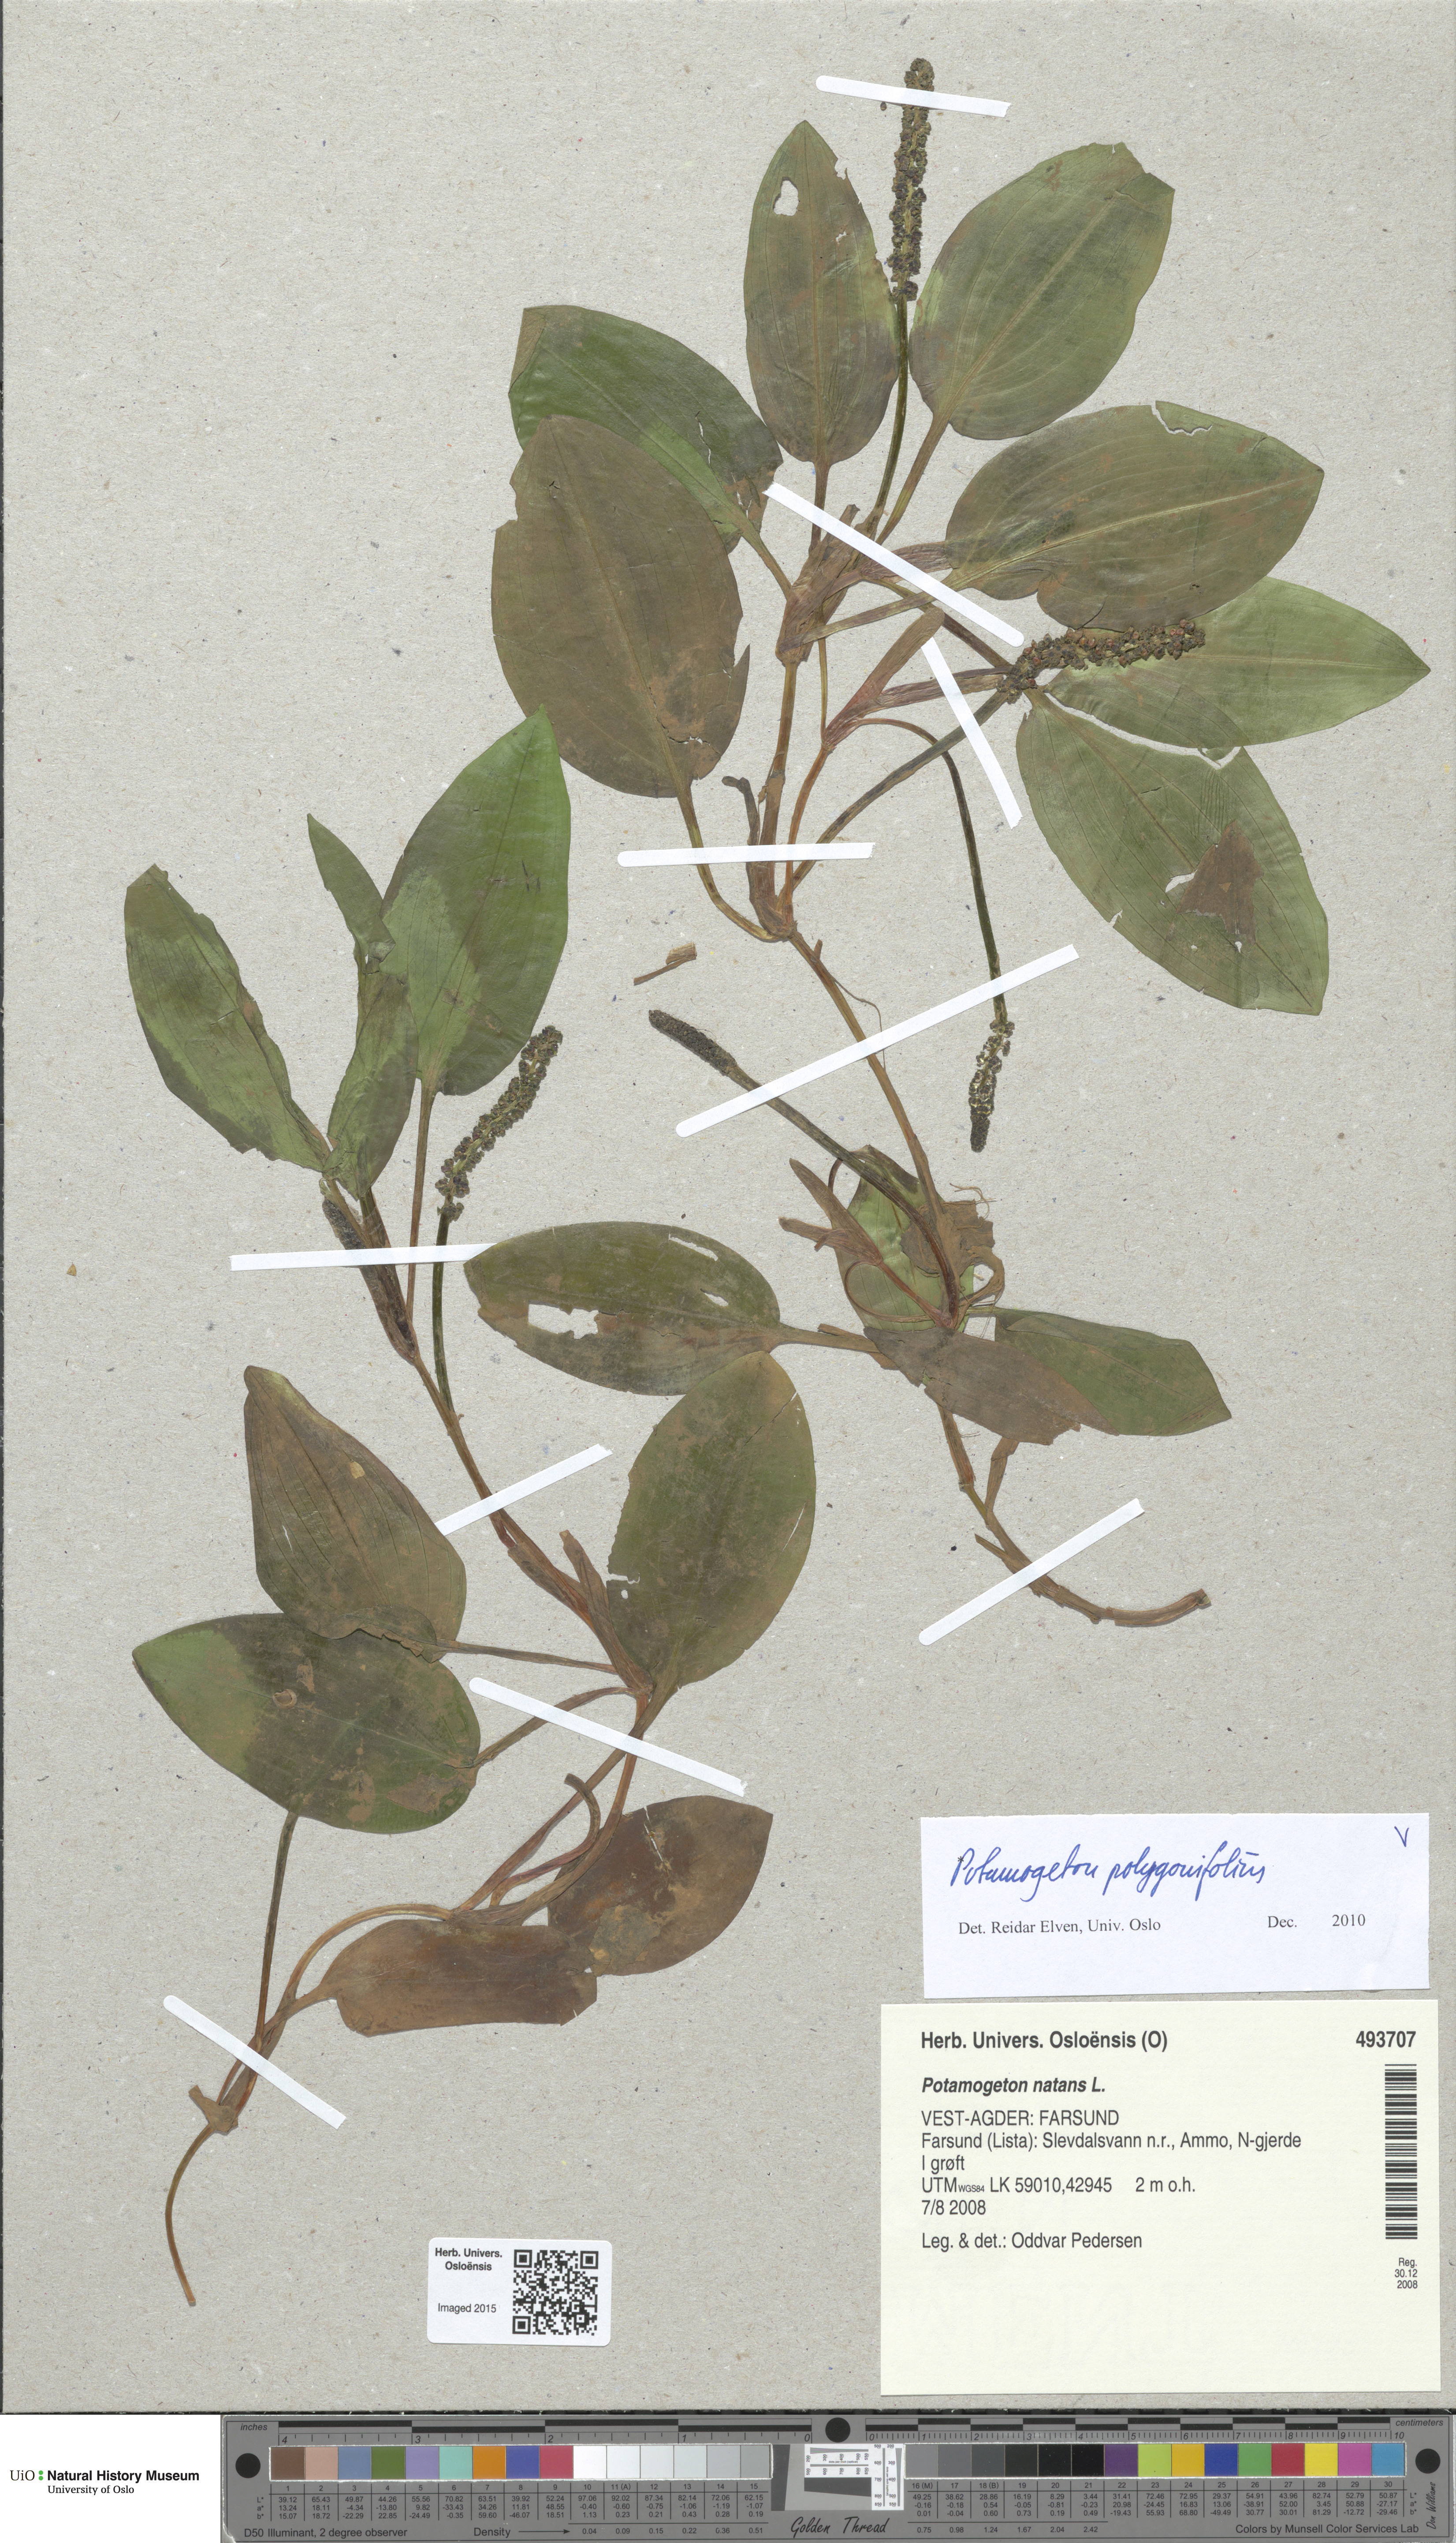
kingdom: Plantae
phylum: Tracheophyta
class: Liliopsida
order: Alismatales
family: Potamogetonaceae
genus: Potamogeton
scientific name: Potamogeton polygonifolius
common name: Bog pondweed
